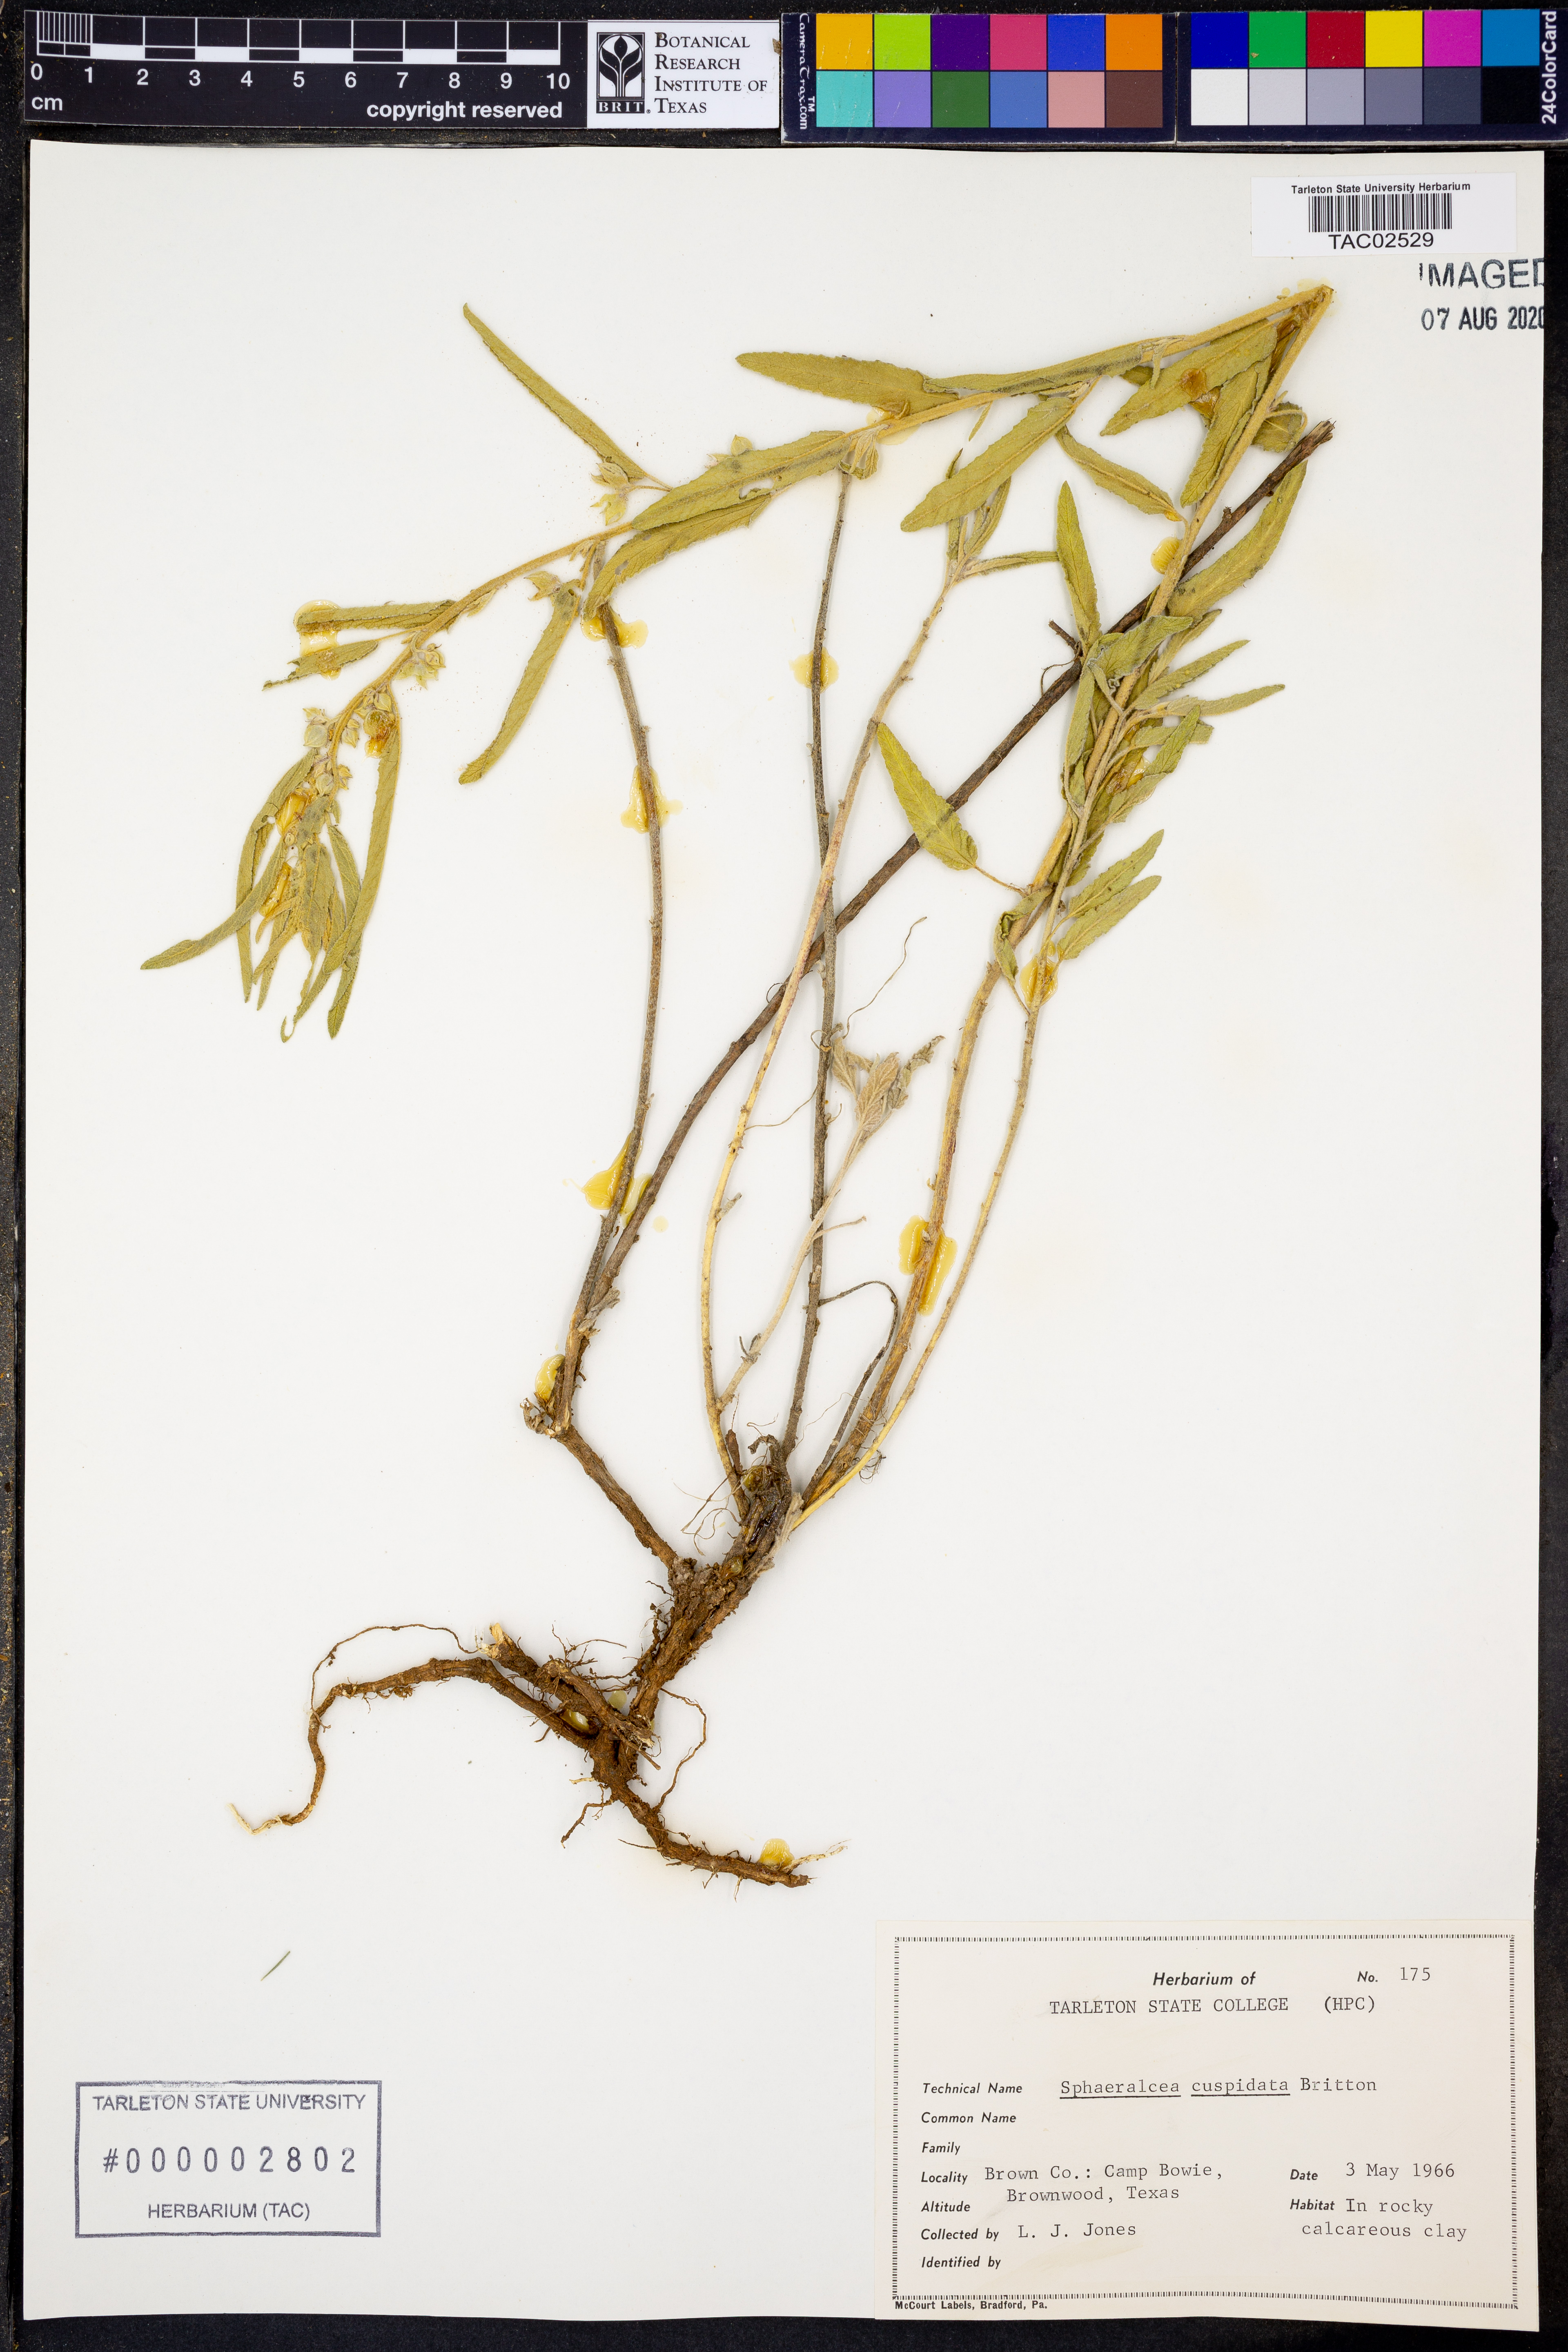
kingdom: Plantae
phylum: Tracheophyta
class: Magnoliopsida
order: Malvales
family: Malvaceae
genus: Sphaeralcea
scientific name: Sphaeralcea angustifolia
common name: Copper globe-mallow
